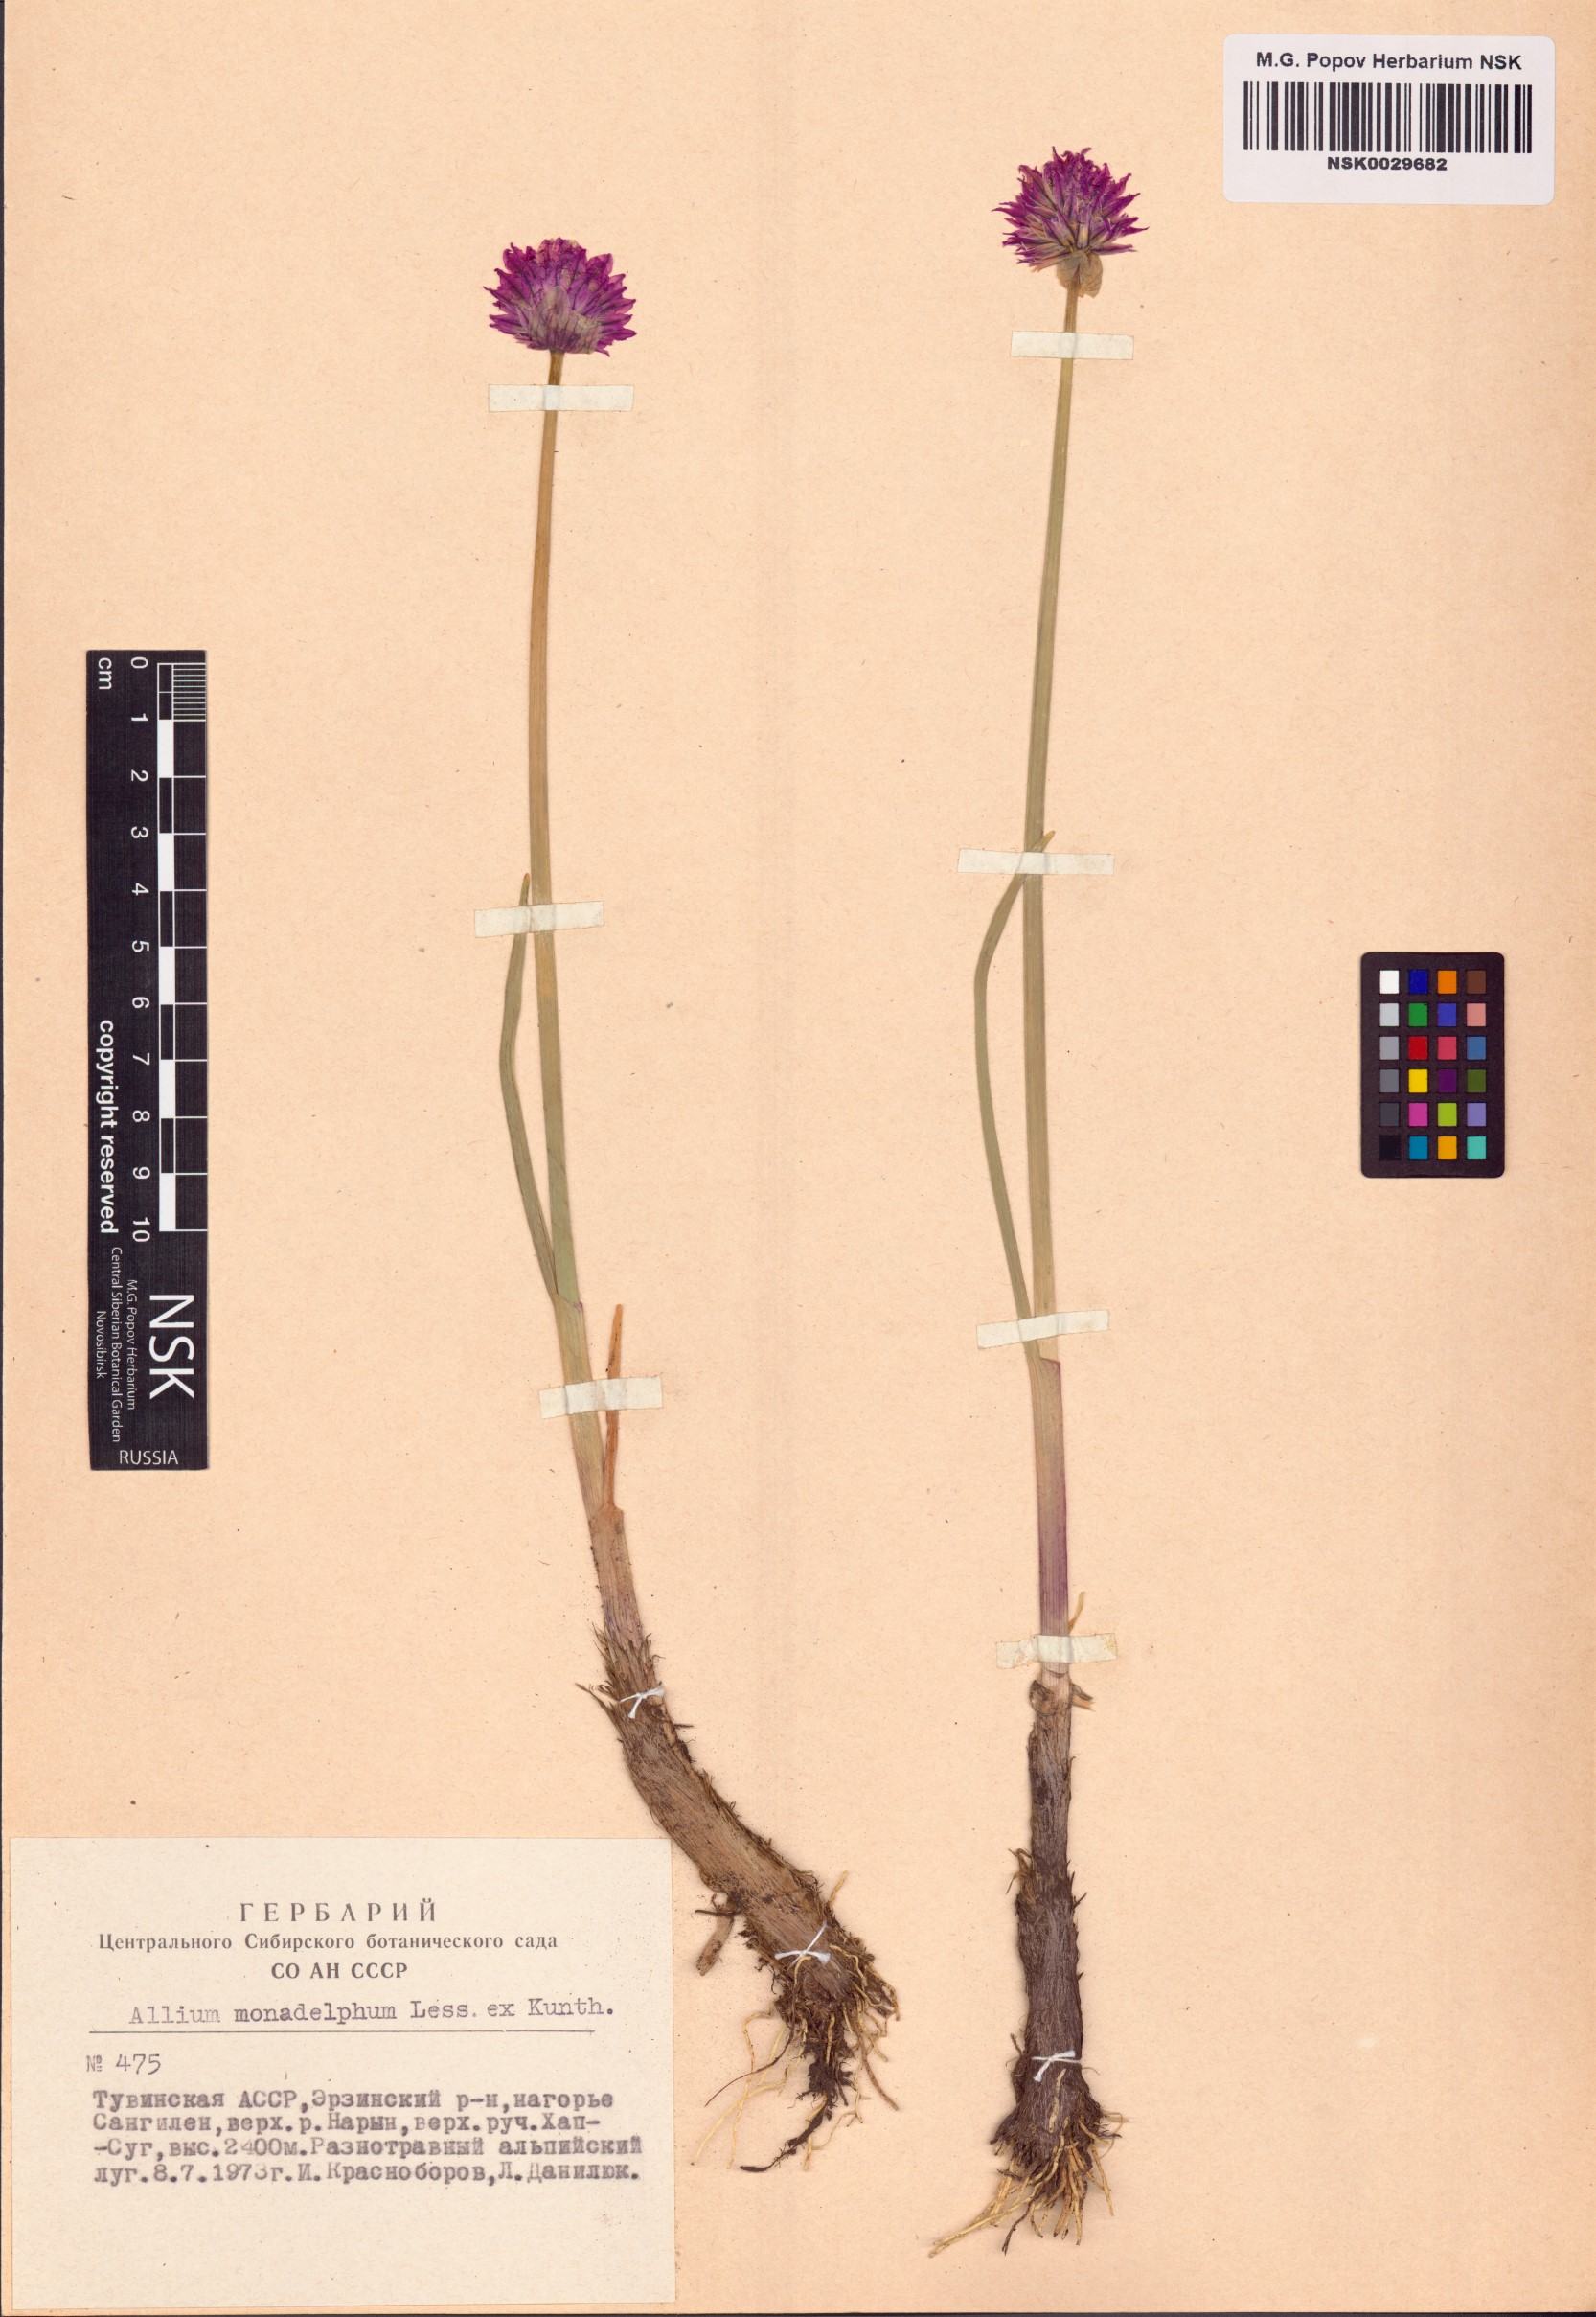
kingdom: Plantae
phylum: Tracheophyta
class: Liliopsida
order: Asparagales
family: Amaryllidaceae
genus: Allium
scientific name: Allium atrosanguineum
